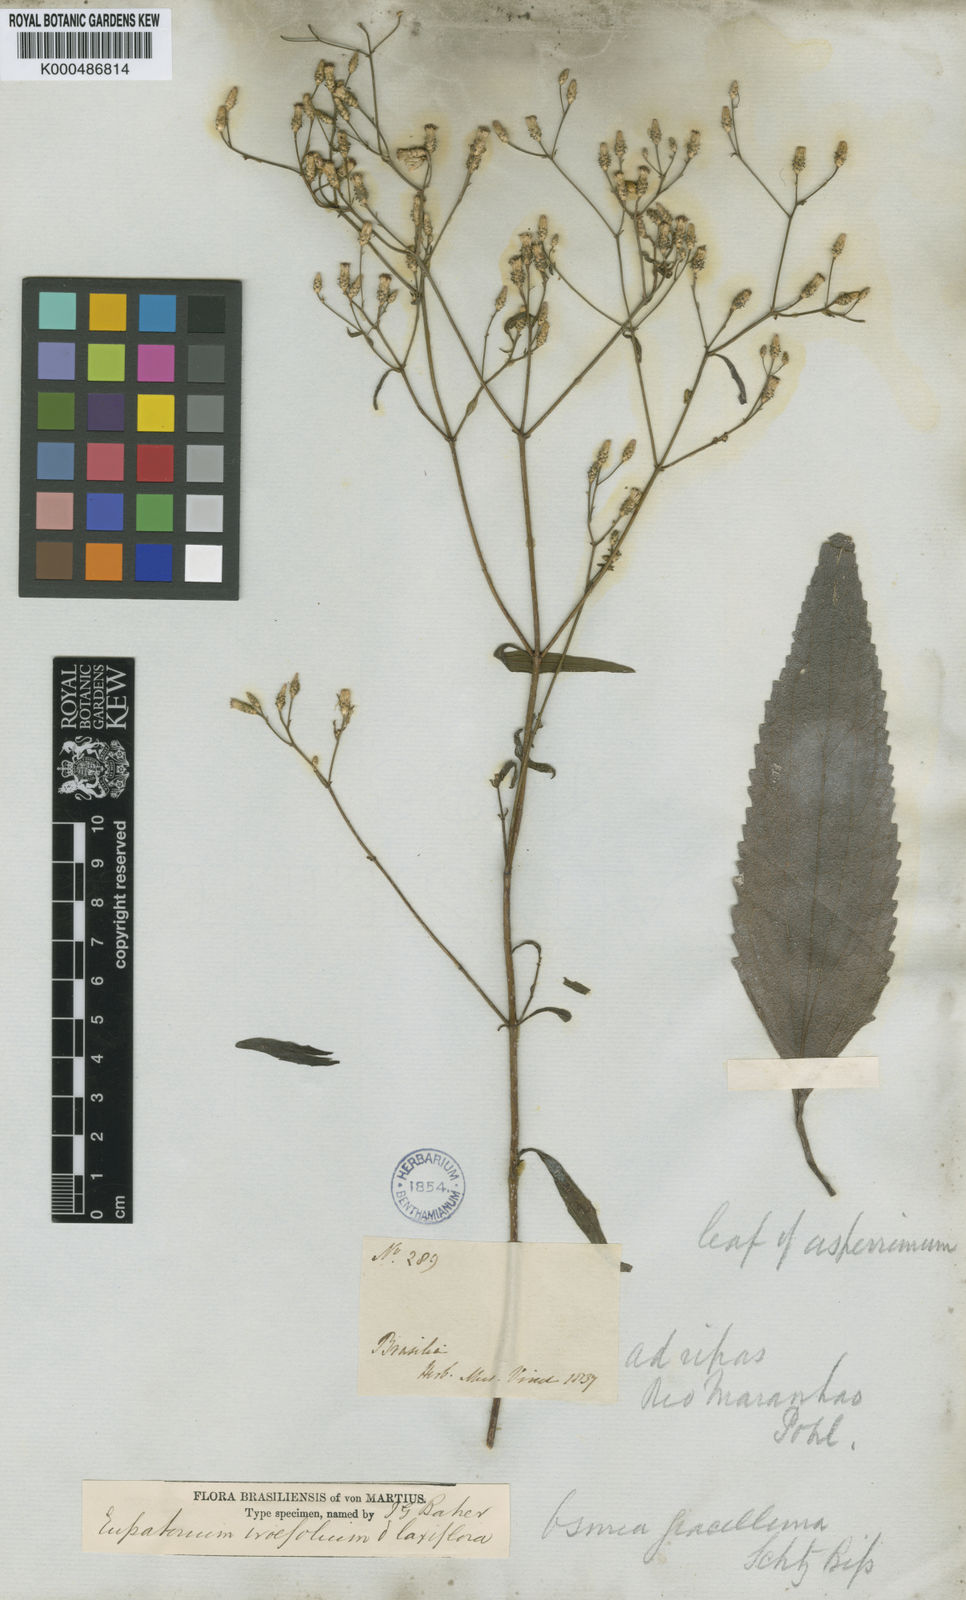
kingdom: Plantae
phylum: Tracheophyta
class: Magnoliopsida
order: Asterales
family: Asteraceae
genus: Chromolaena
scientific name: Chromolaena ivifolia
